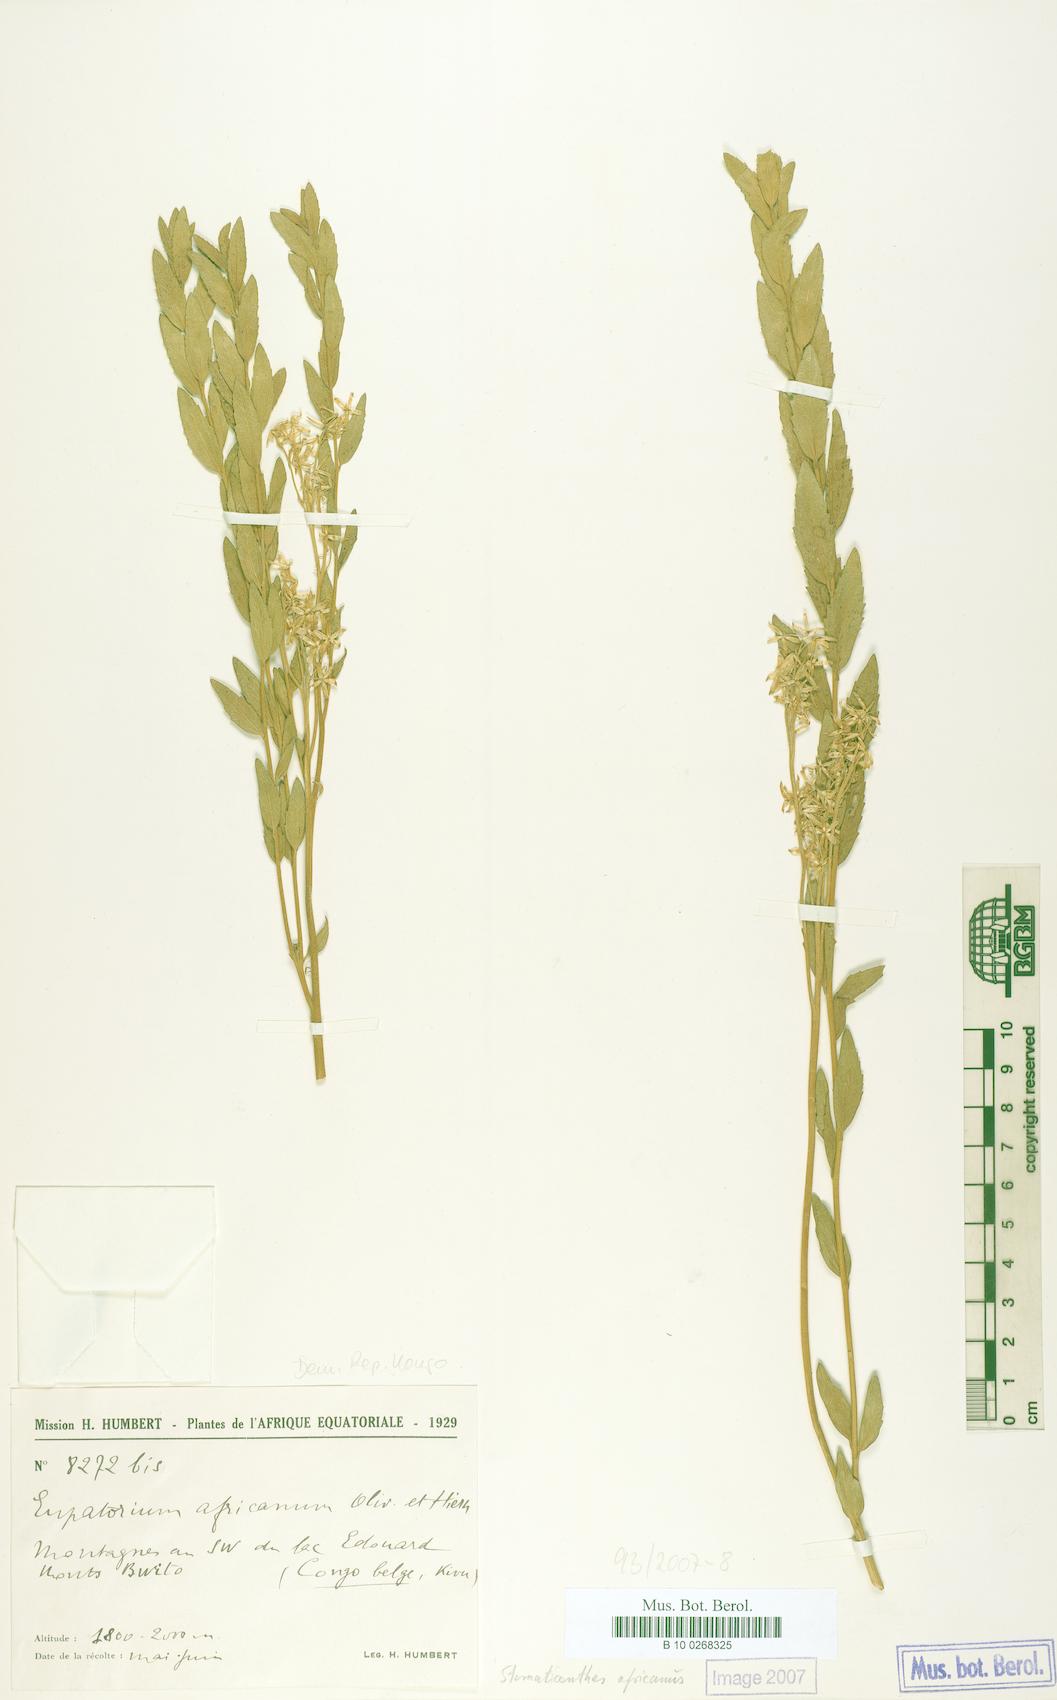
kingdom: Plantae
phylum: Tracheophyta
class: Magnoliopsida
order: Asterales
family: Asteraceae
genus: Stomatanthes
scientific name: Stomatanthes africanus
